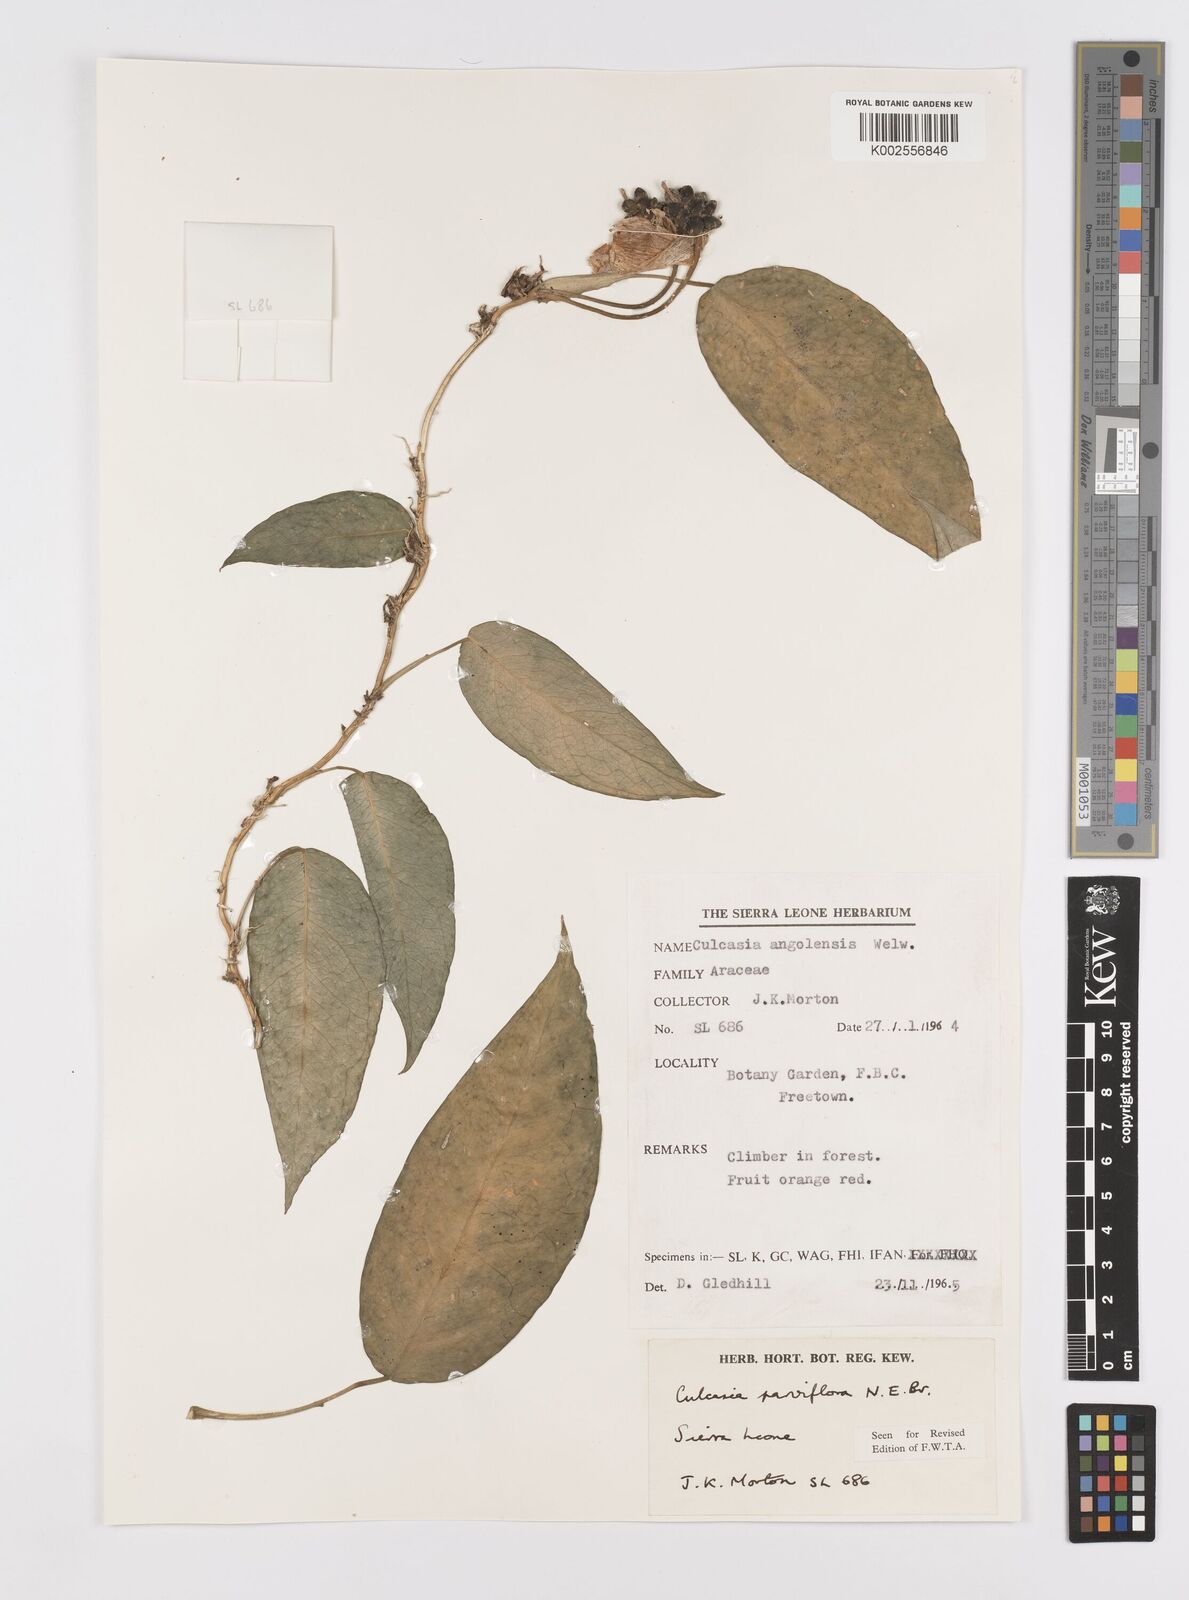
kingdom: Plantae
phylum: Tracheophyta
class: Liliopsida
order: Alismatales
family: Araceae
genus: Culcasia
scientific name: Culcasia parviflora
